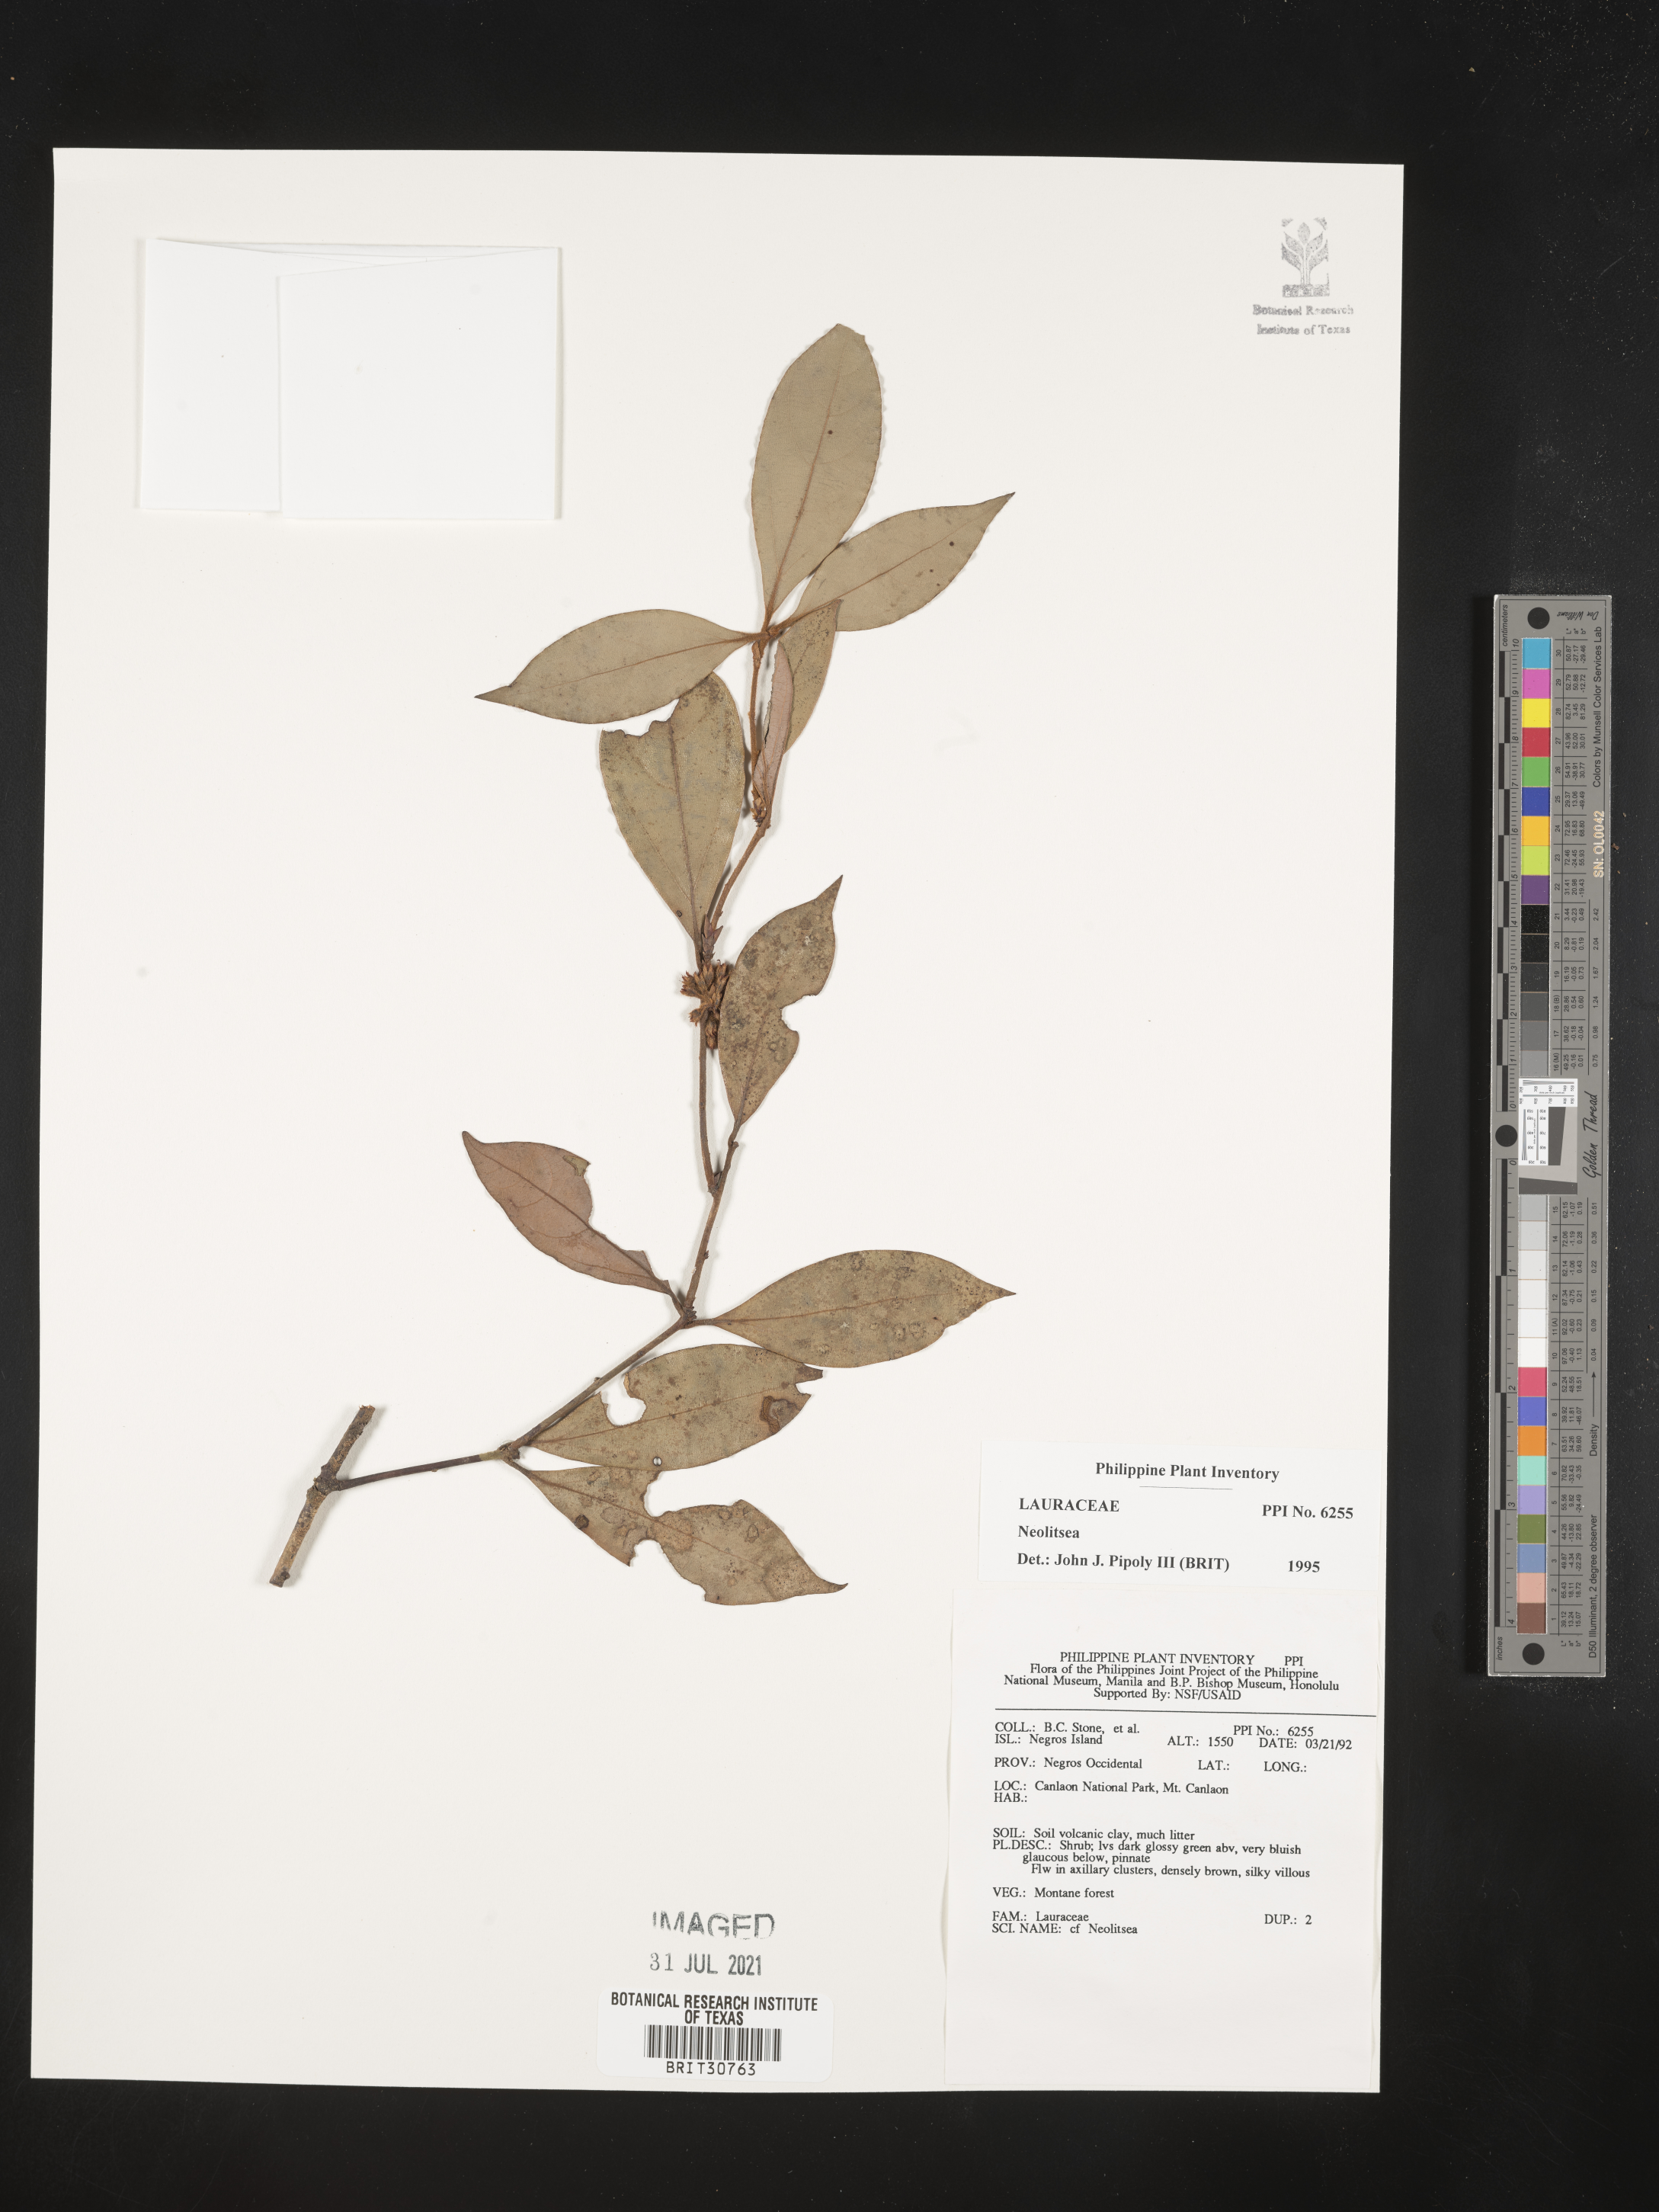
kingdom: Plantae
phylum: Tracheophyta
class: Magnoliopsida
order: Laurales
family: Lauraceae
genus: Neolitsea
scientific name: Neolitsea
